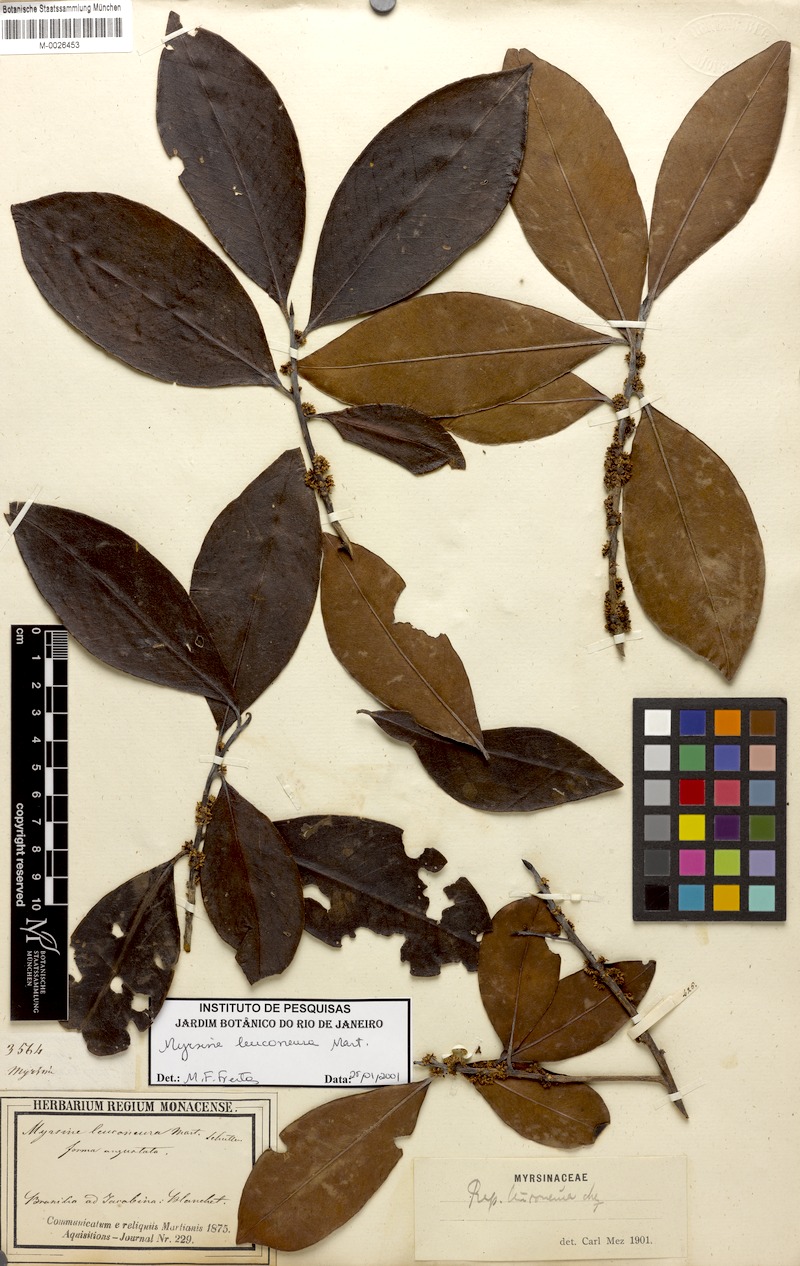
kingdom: Plantae
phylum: Tracheophyta
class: Magnoliopsida
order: Ericales
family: Primulaceae
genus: Myrsine
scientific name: Myrsine leuconeura
